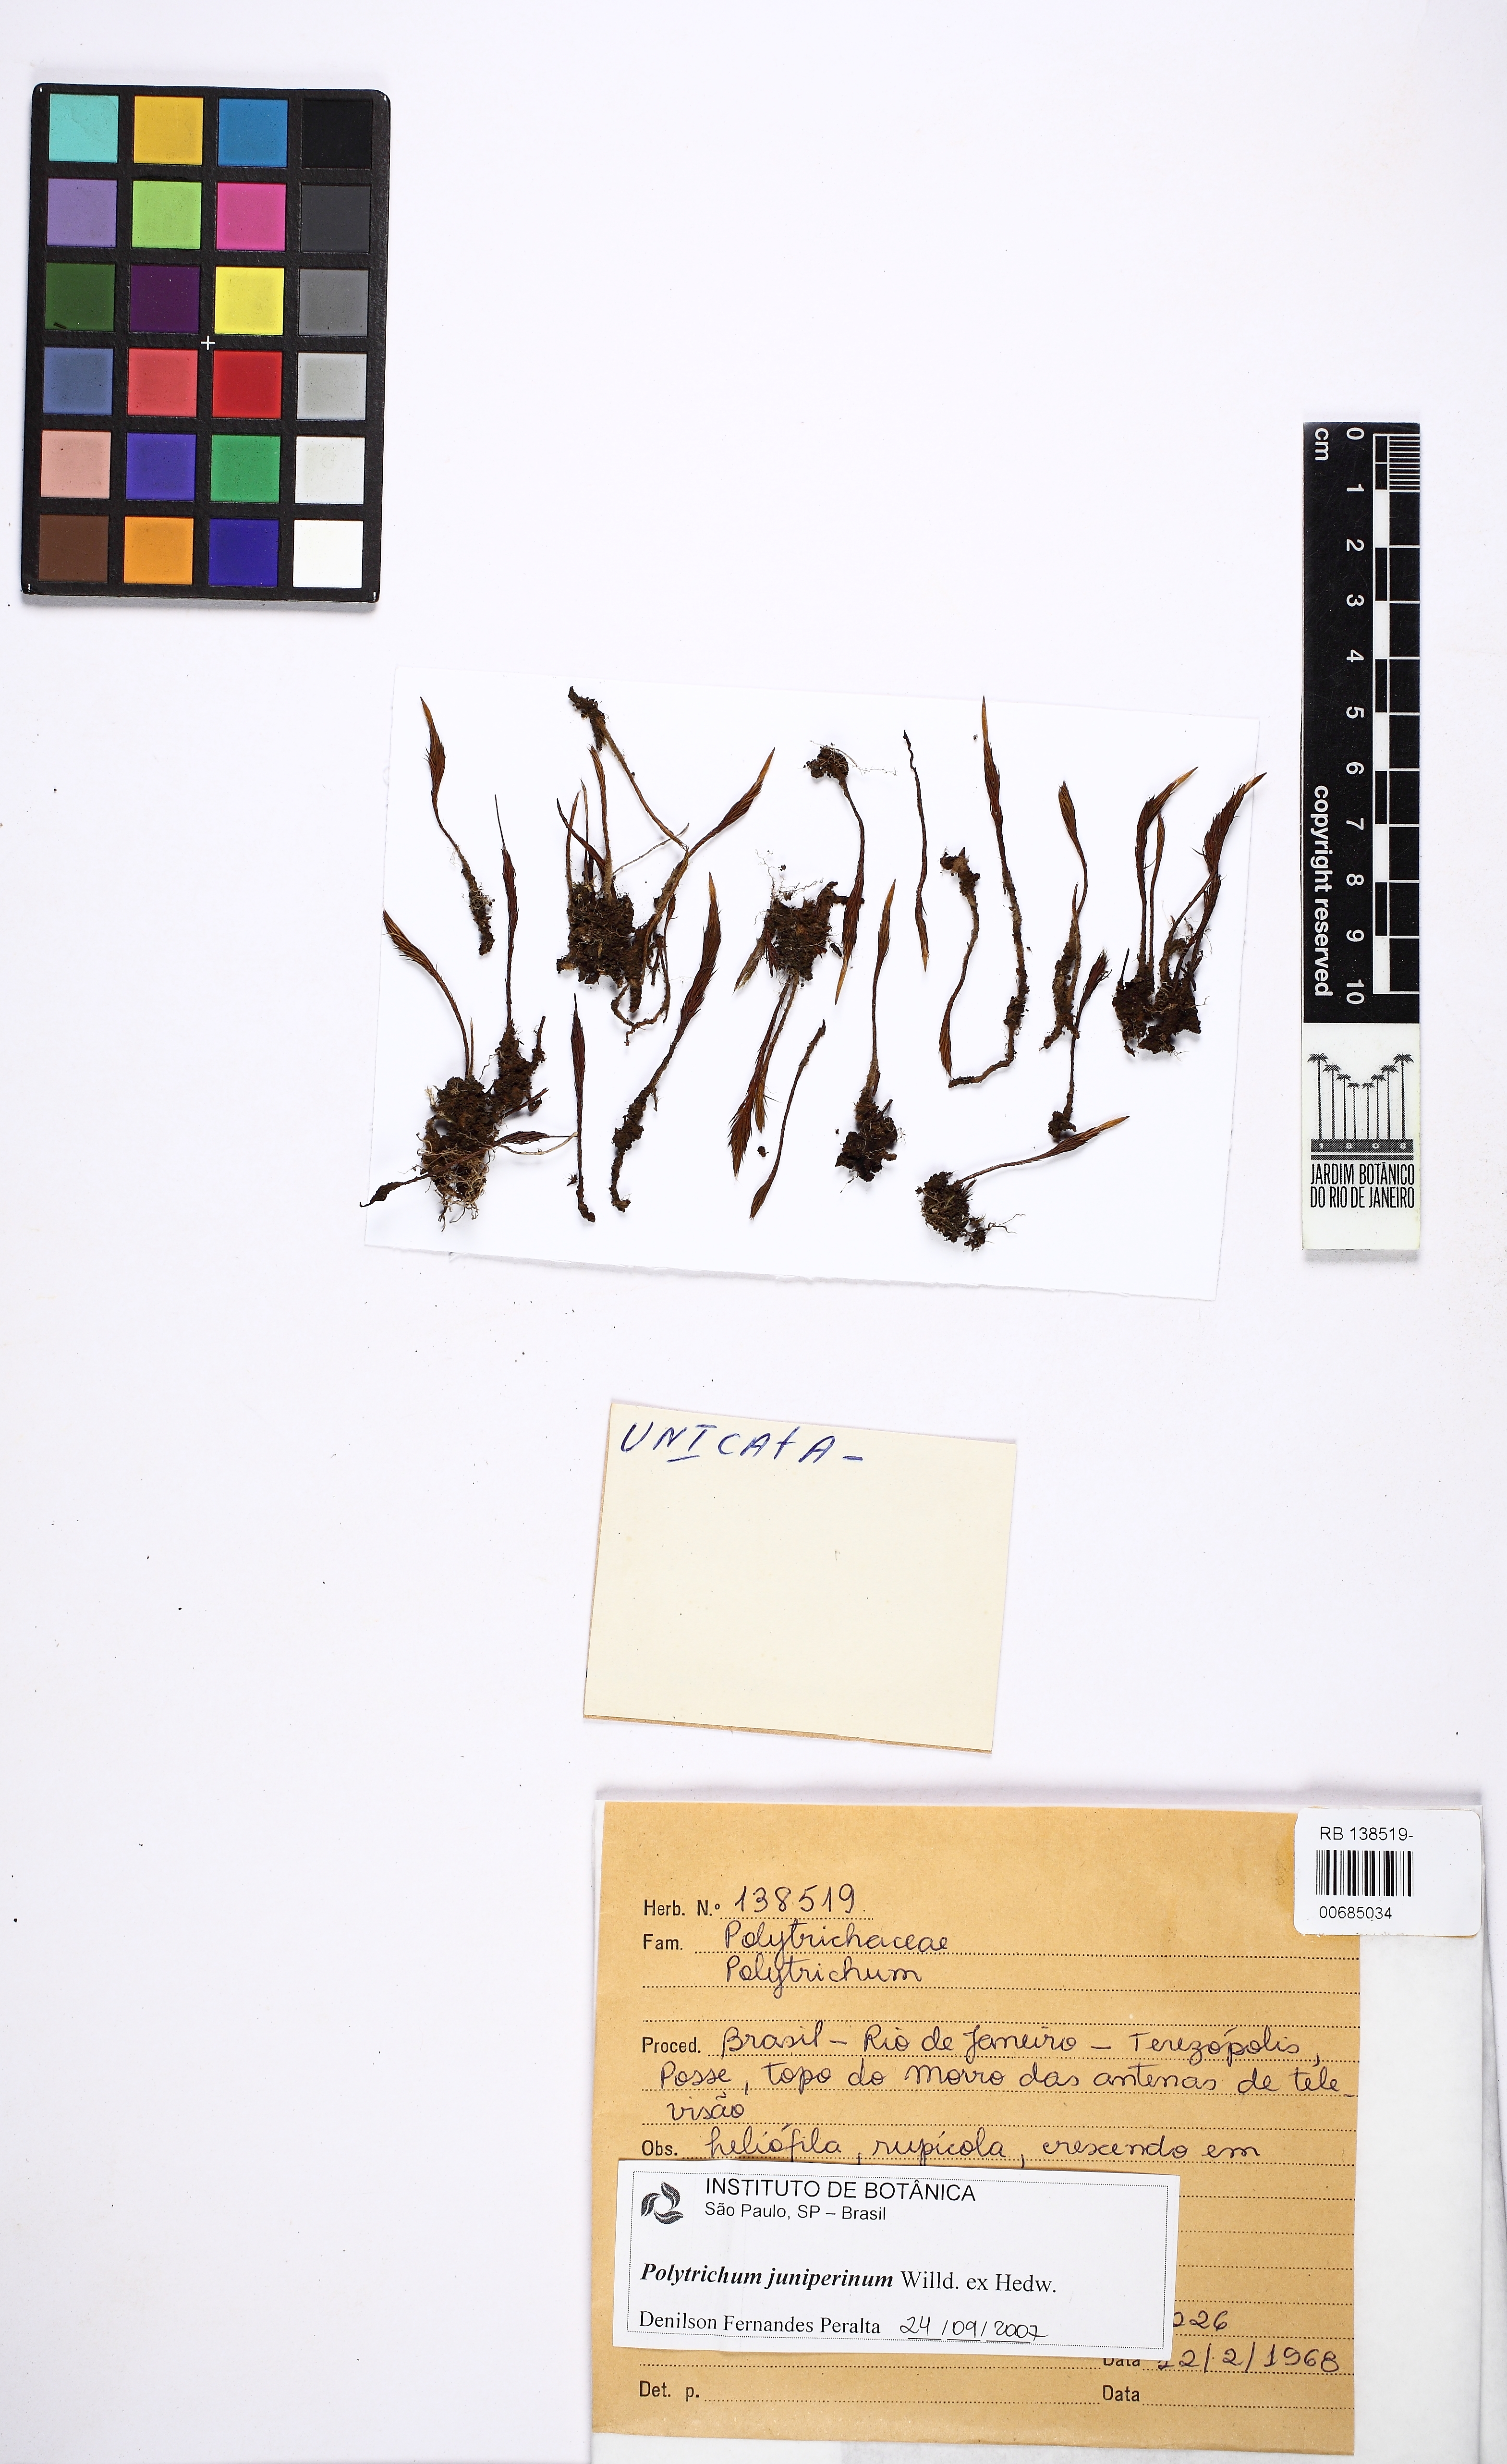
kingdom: Plantae
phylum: Bryophyta
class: Polytrichopsida
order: Polytrichales
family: Polytrichaceae
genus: Polytrichum
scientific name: Polytrichum juniperinum
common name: Juniper haircap moss
